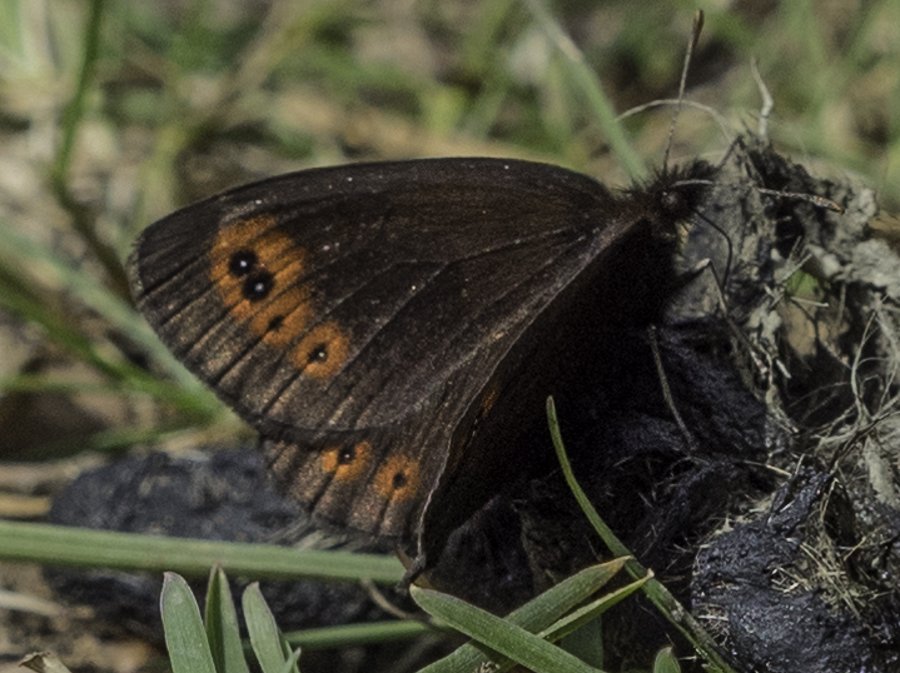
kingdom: Animalia
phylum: Arthropoda
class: Insecta
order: Lepidoptera
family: Nymphalidae
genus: Erebia
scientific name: Erebia epipsodea
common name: Common Alpine
